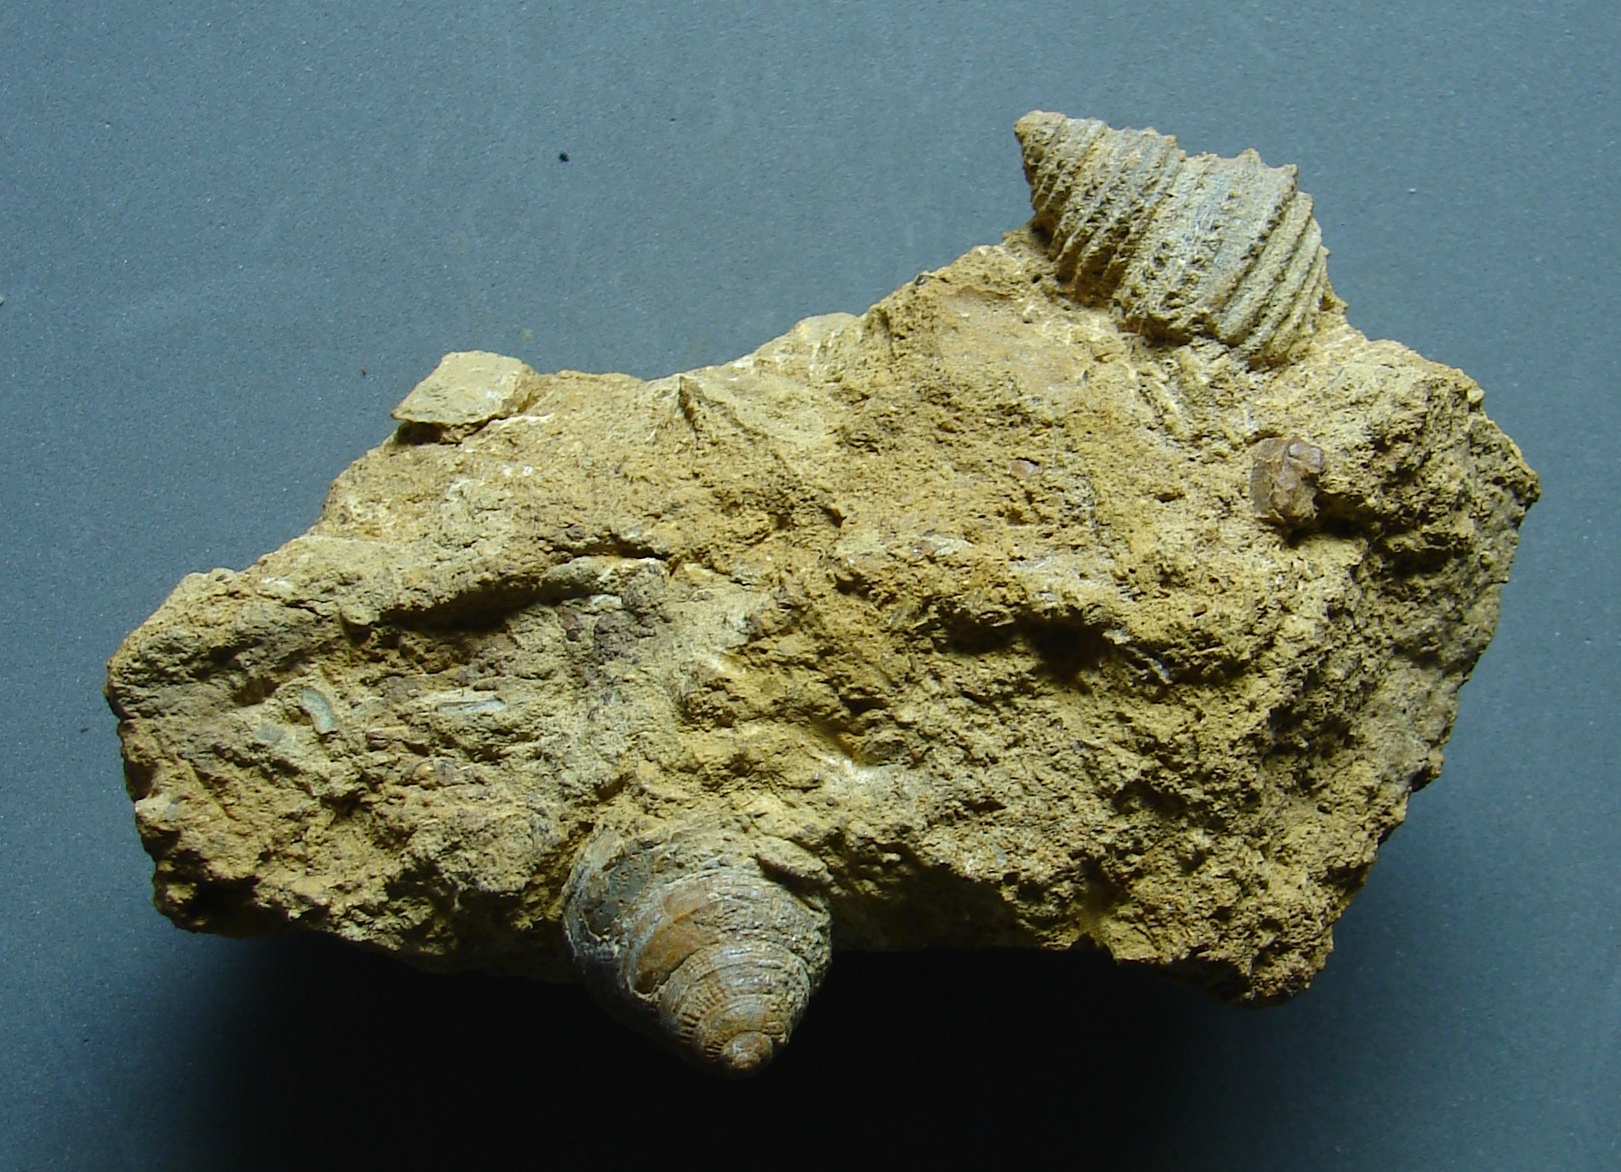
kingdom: Animalia
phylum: Mollusca
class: Gastropoda
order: Pleurotomariida
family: Pleurotomariidae
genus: Bathrotomaria
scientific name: Bathrotomaria Pleurotomaria subreticulata
